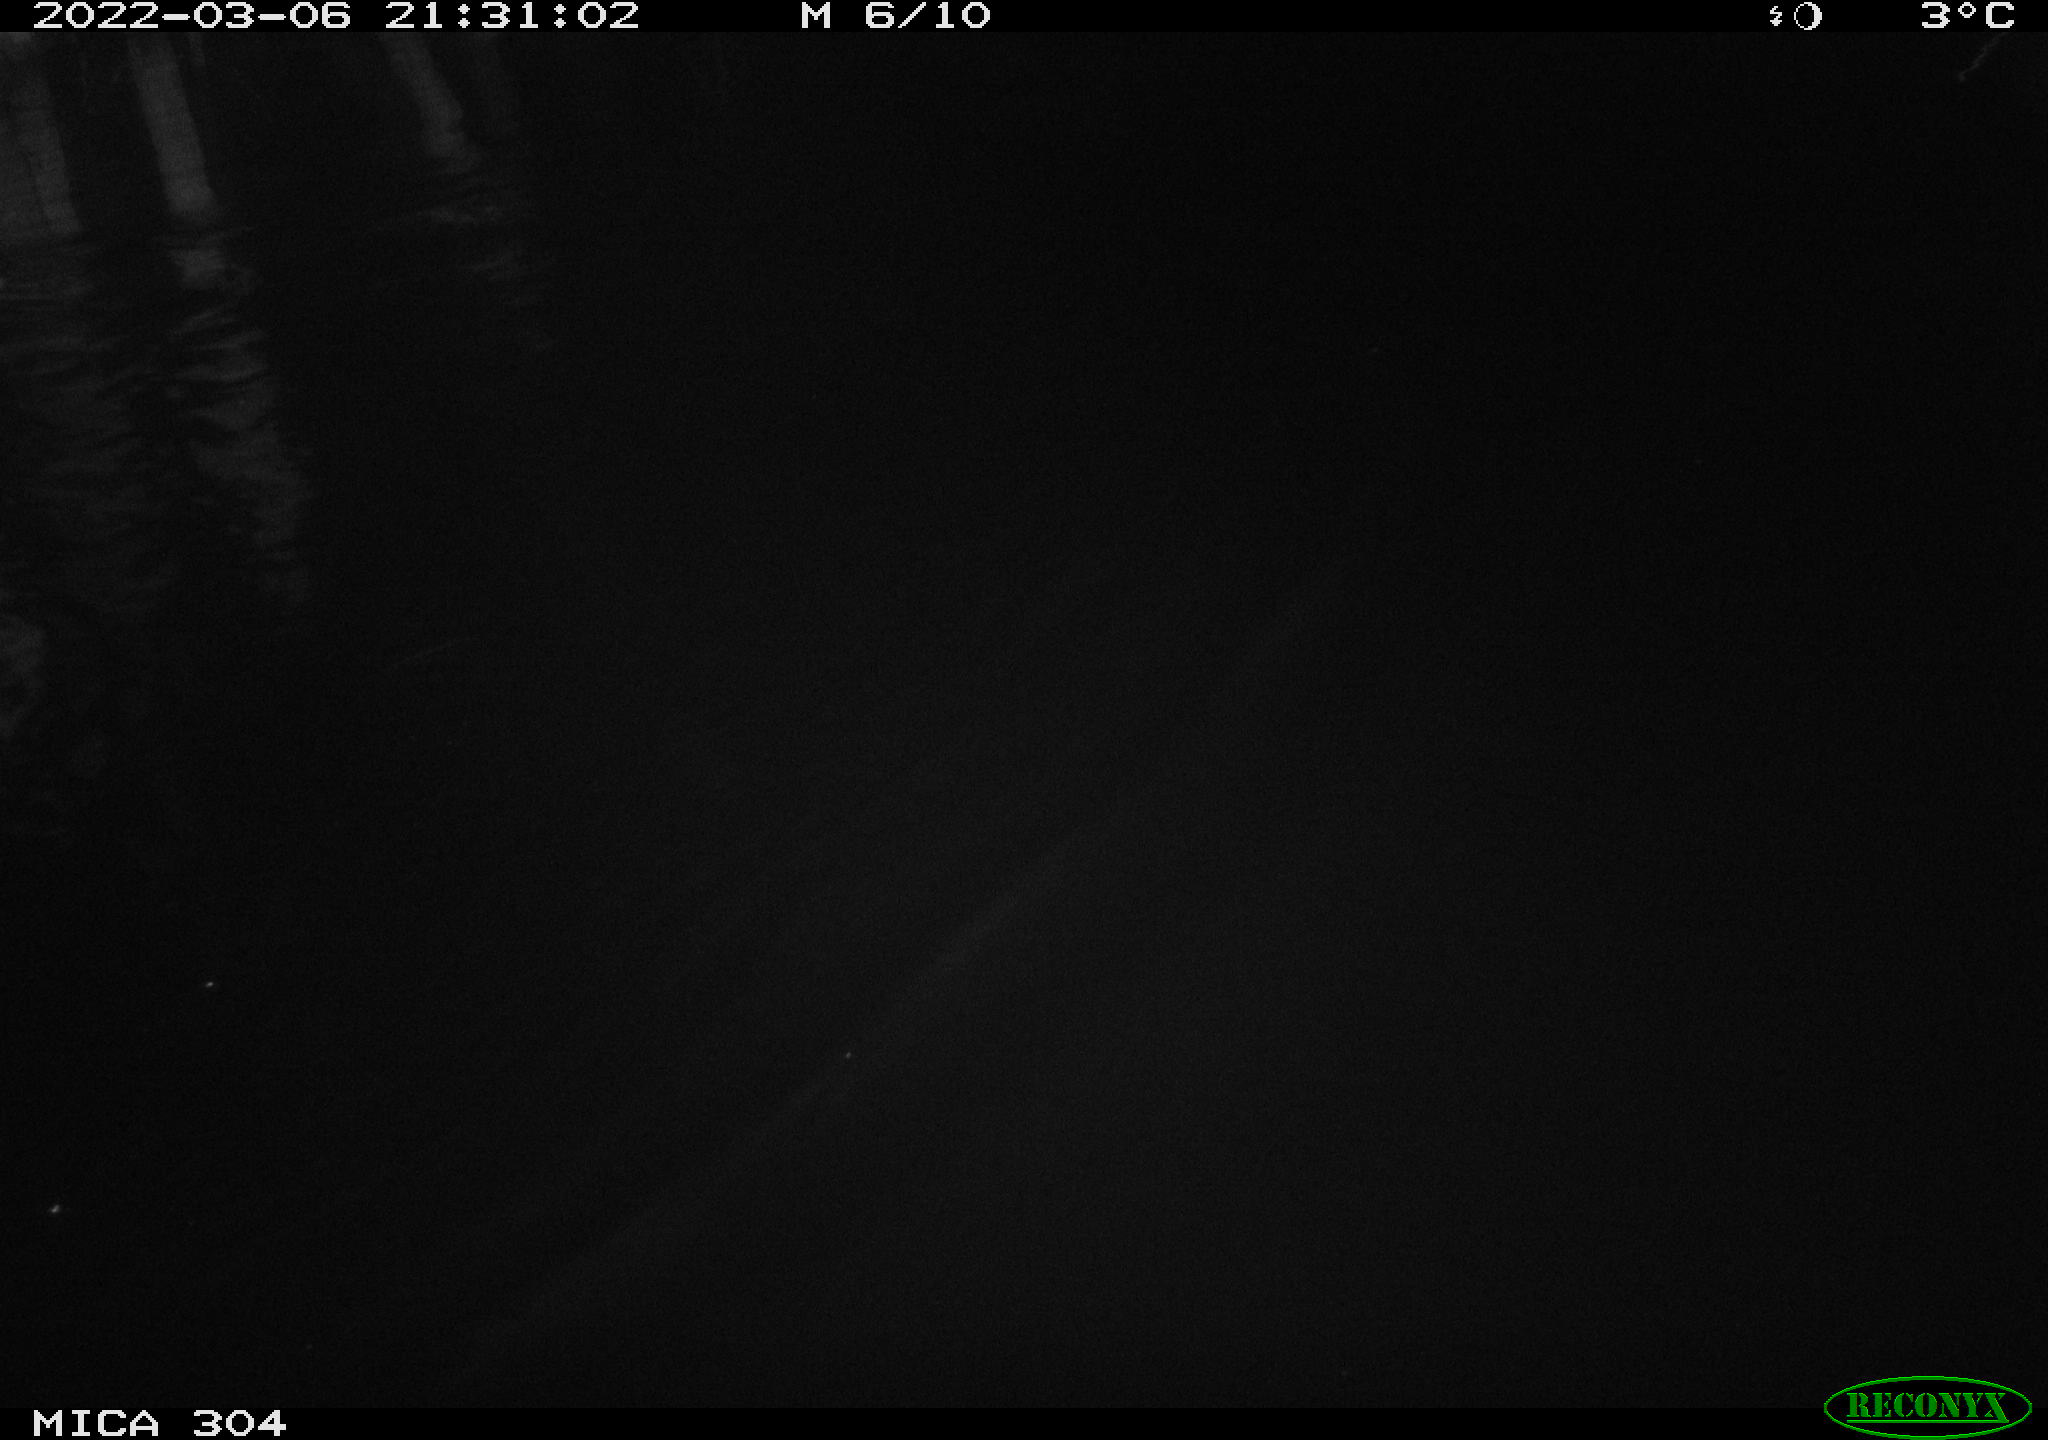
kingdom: Animalia
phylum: Chordata
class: Mammalia
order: Rodentia
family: Muridae
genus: Rattus
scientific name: Rattus norvegicus
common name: Brown rat
